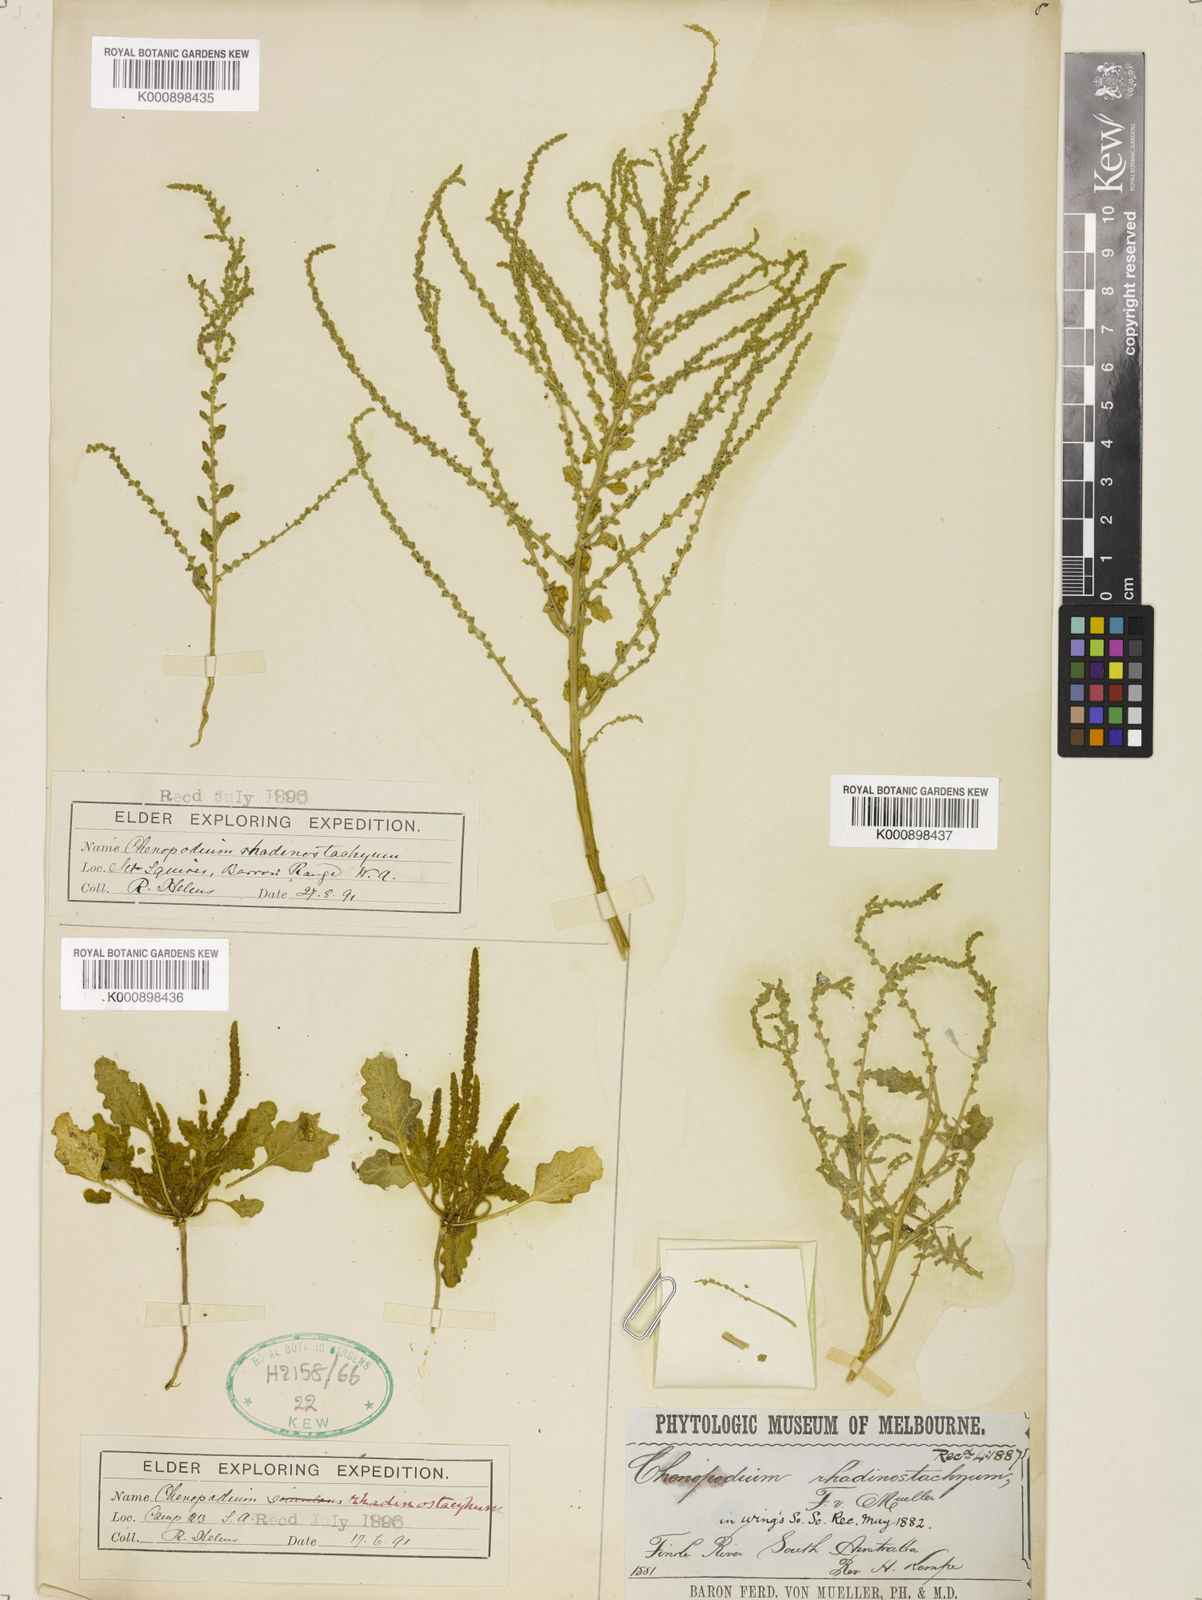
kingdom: Plantae
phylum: Tracheophyta
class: Magnoliopsida
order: Caryophyllales
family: Amaranthaceae
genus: Dysphania
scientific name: Dysphania rhadinostachya
